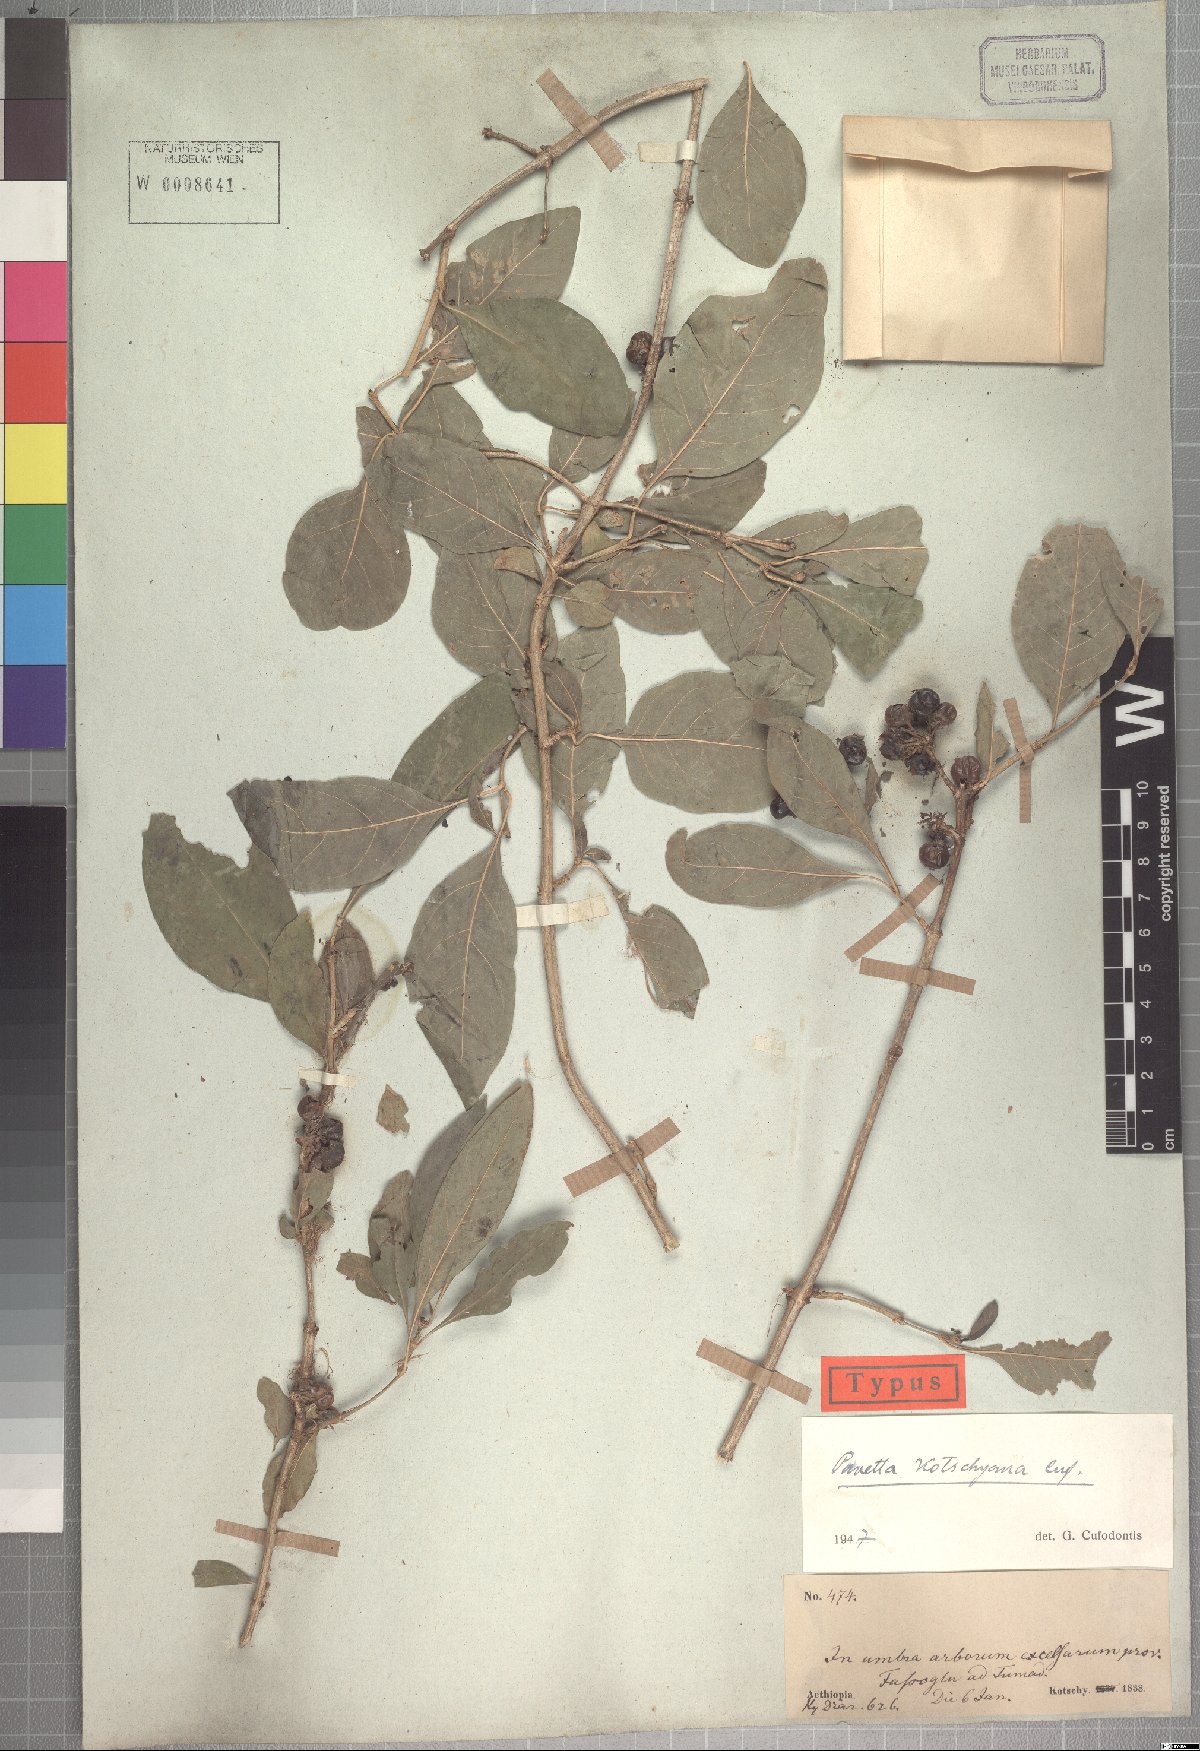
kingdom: Plantae
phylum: Tracheophyta
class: Magnoliopsida
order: Gentianales
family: Rubiaceae
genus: Pavetta
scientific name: Pavetta subcana
